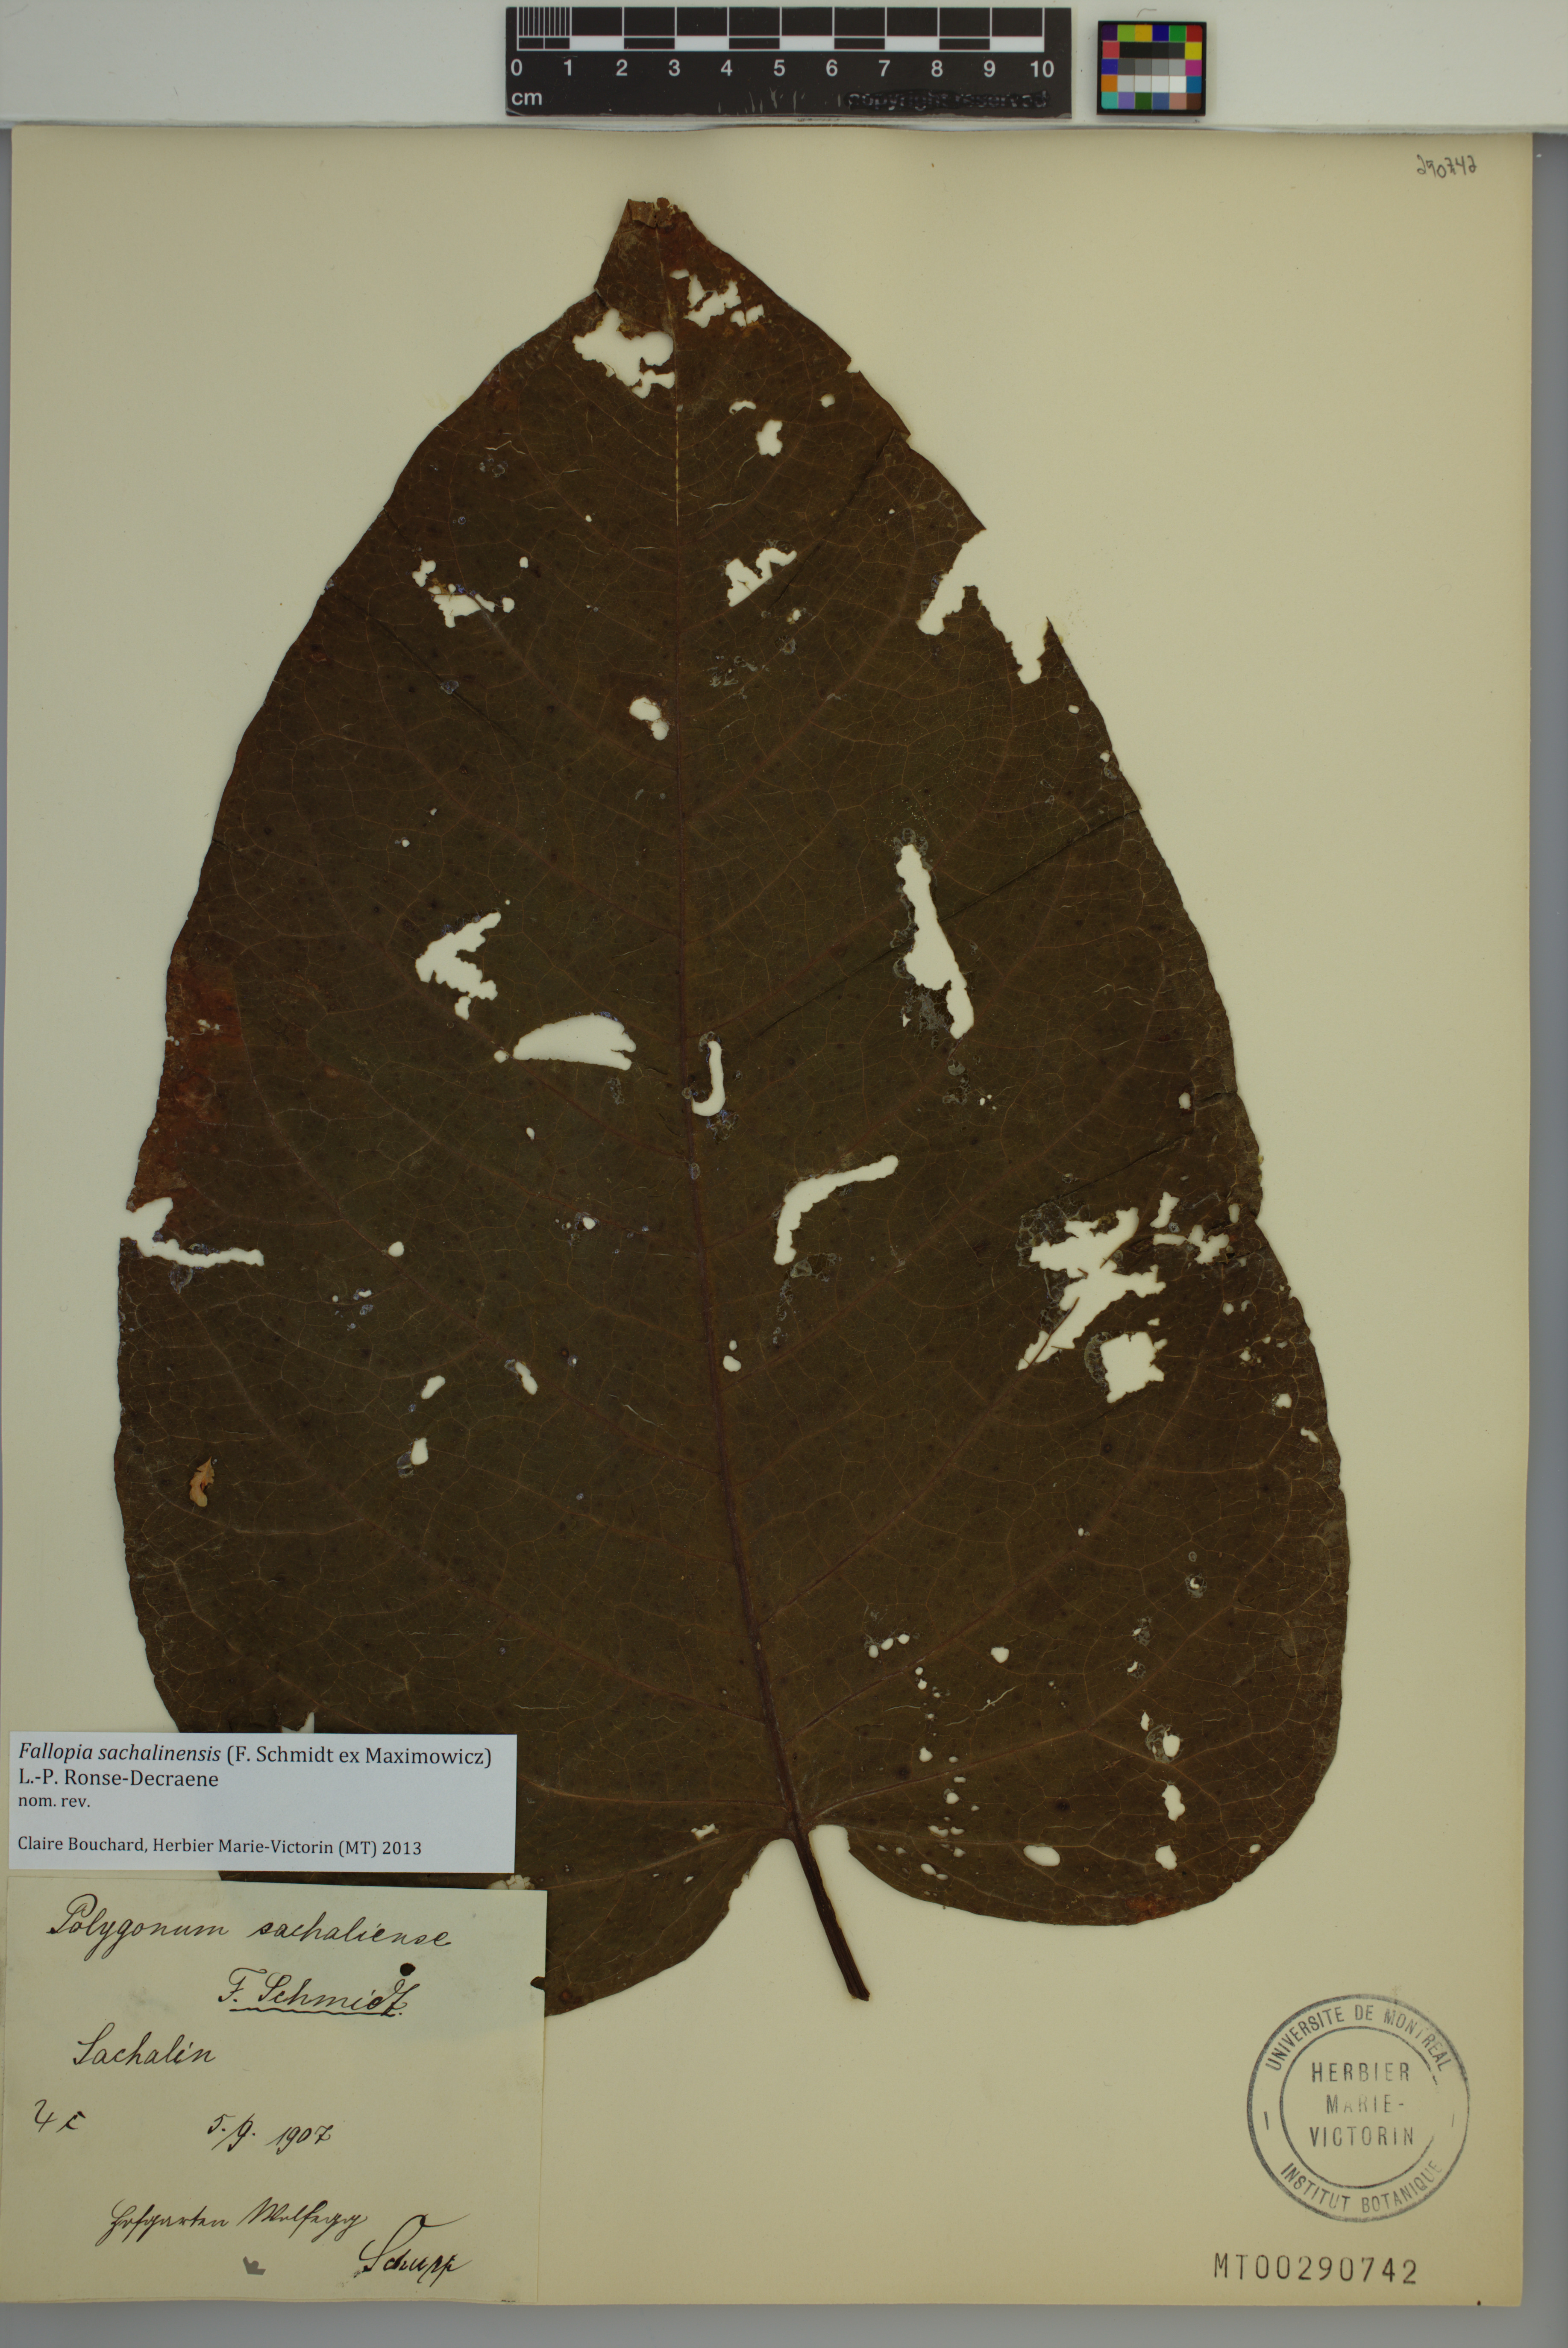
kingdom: Plantae
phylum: Tracheophyta
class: Magnoliopsida
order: Caryophyllales
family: Polygonaceae
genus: Reynoutria
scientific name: Reynoutria sachalinensis
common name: Giant knotweed
